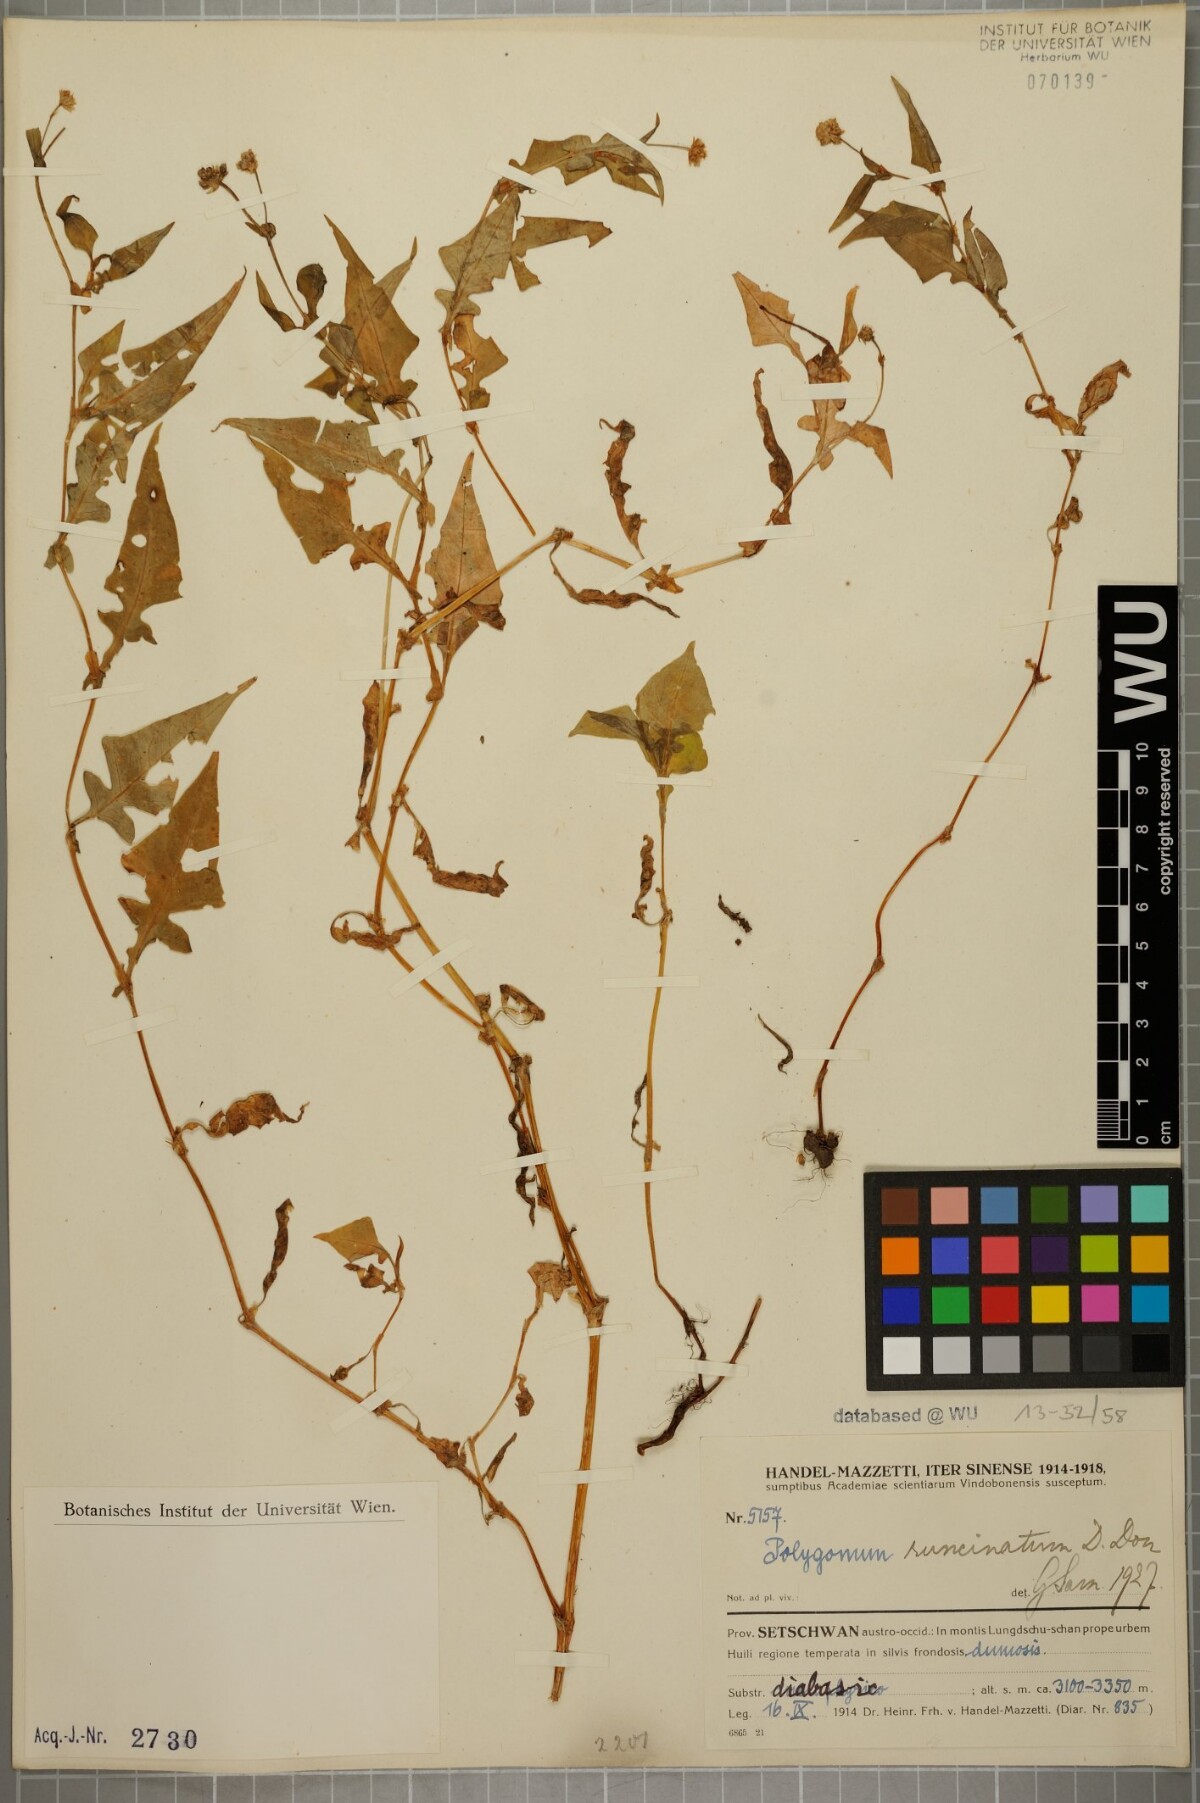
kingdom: Plantae
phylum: Tracheophyta
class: Magnoliopsida
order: Caryophyllales
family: Polygonaceae
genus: Persicaria
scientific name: Persicaria runcinata
